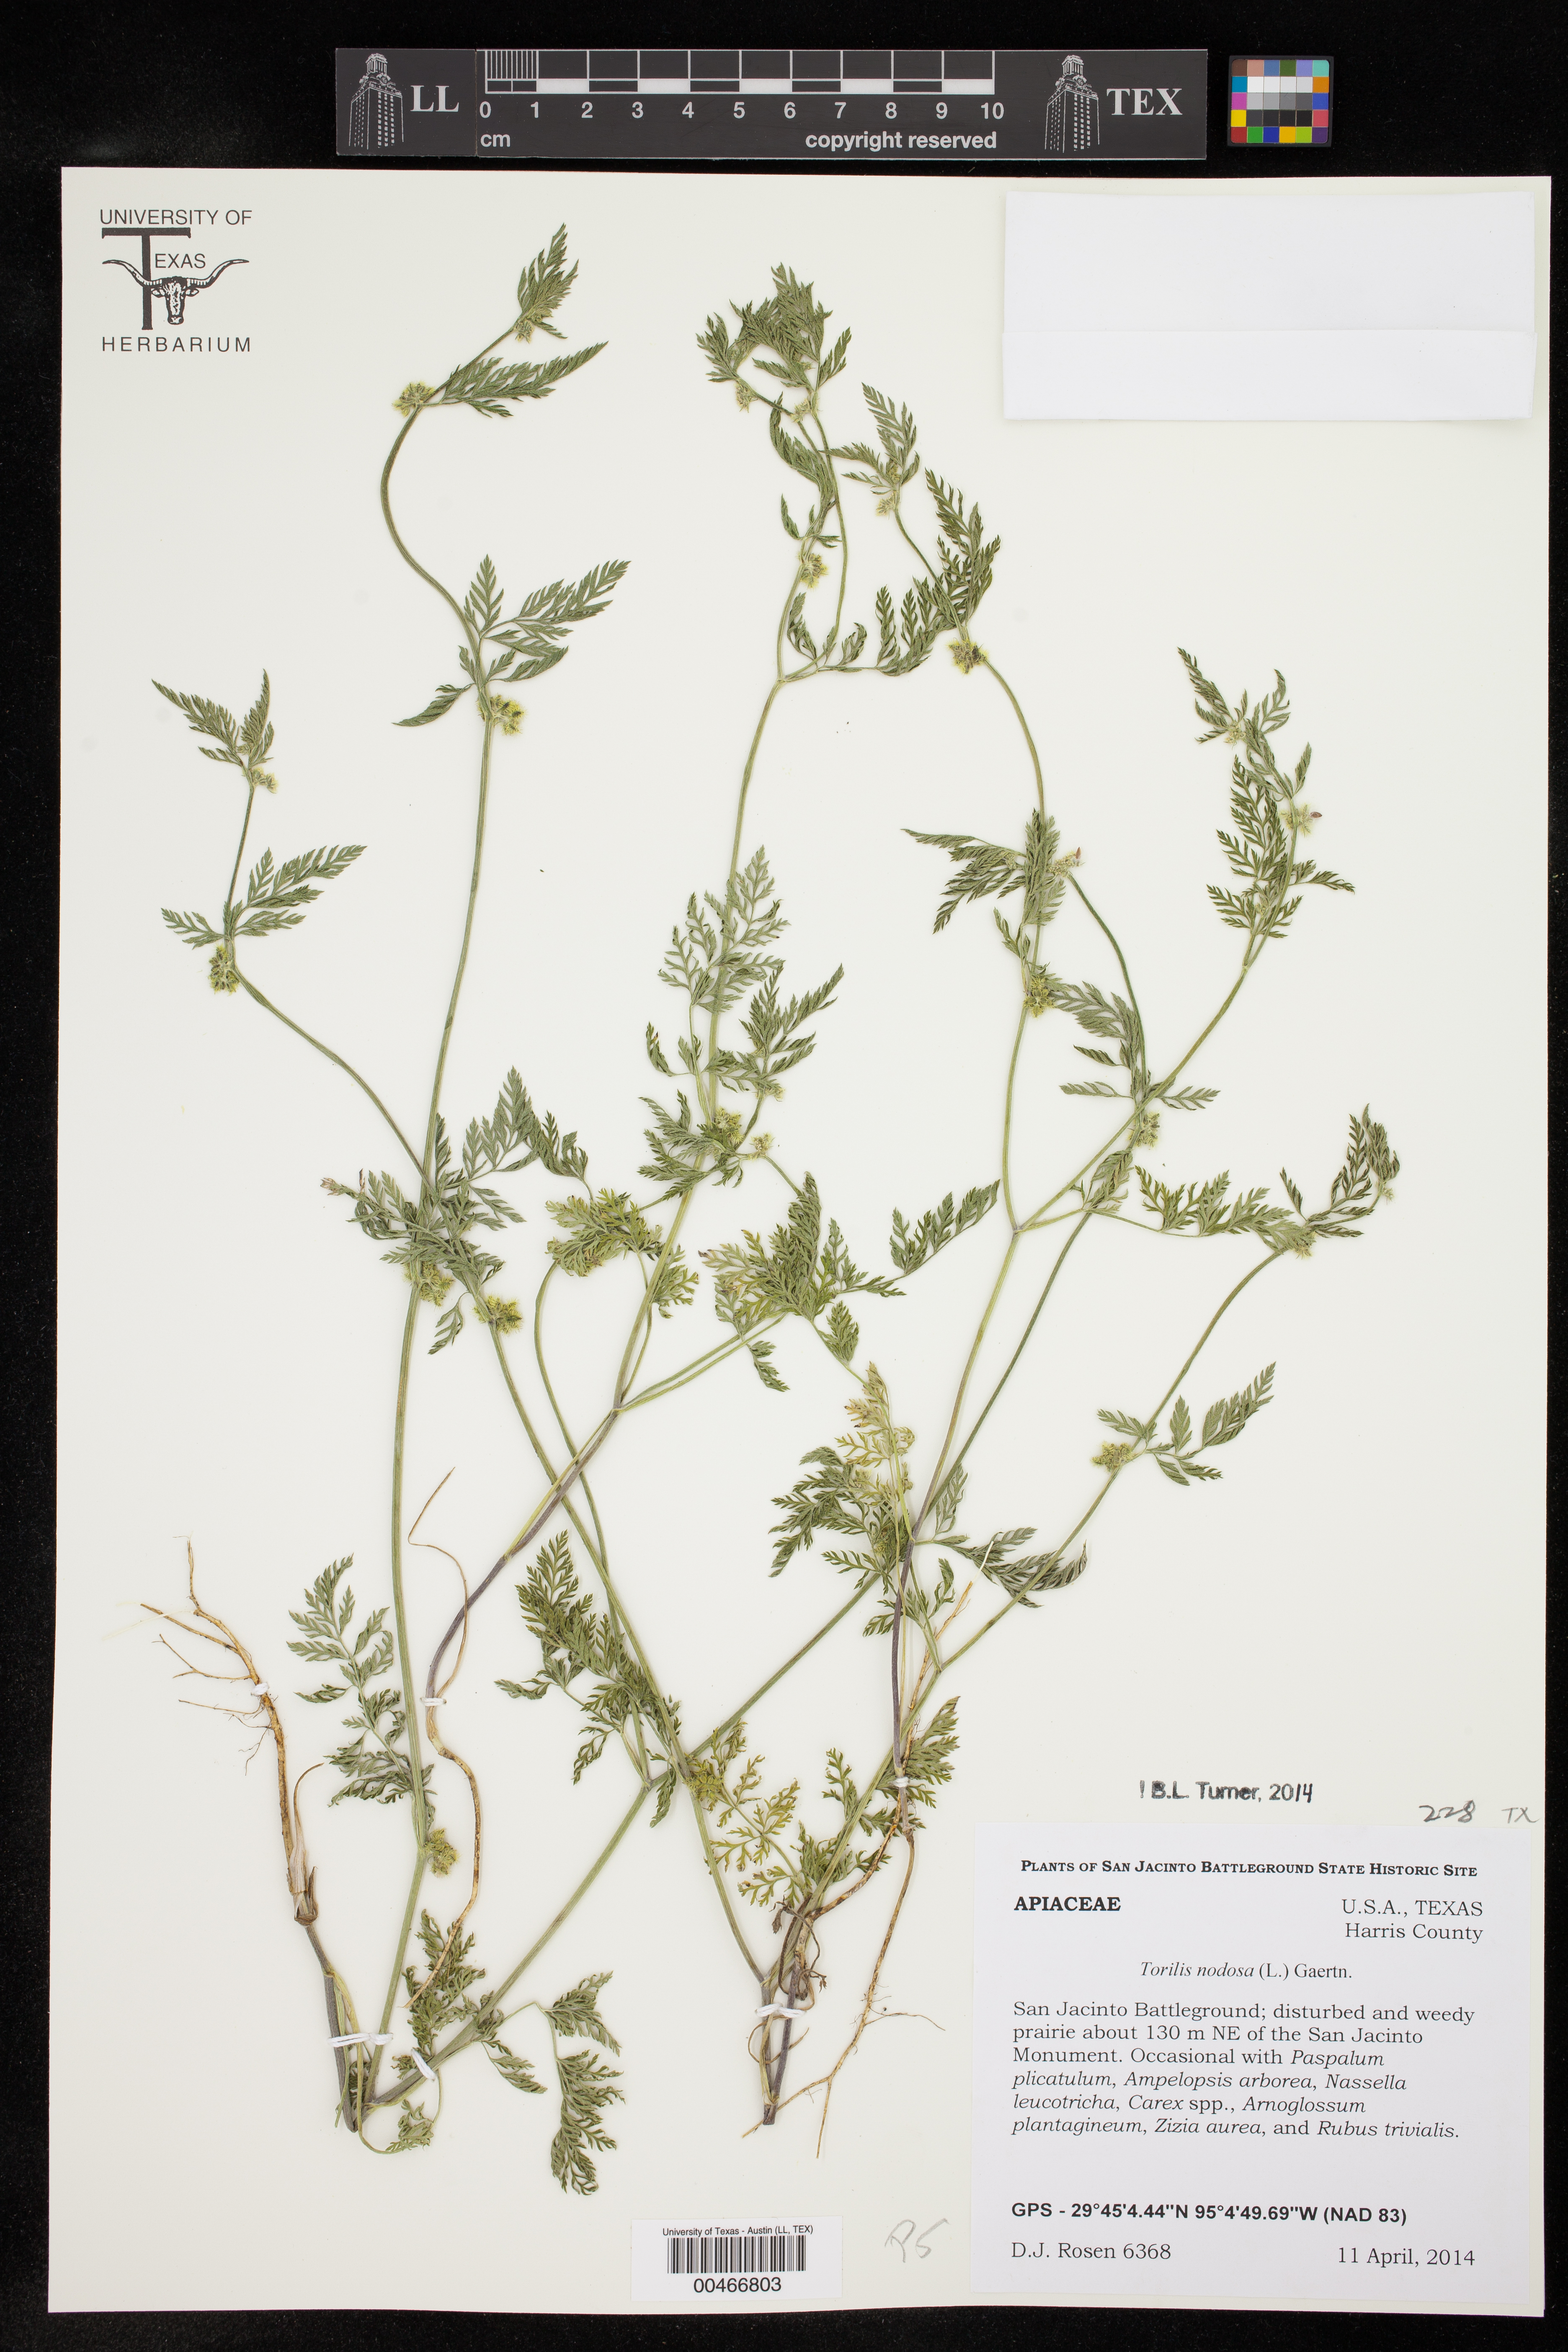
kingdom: Plantae
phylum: Tracheophyta
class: Magnoliopsida
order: Apiales
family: Apiaceae
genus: Torilis
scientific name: Torilis nodosa
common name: Knotted hedge-parsley
